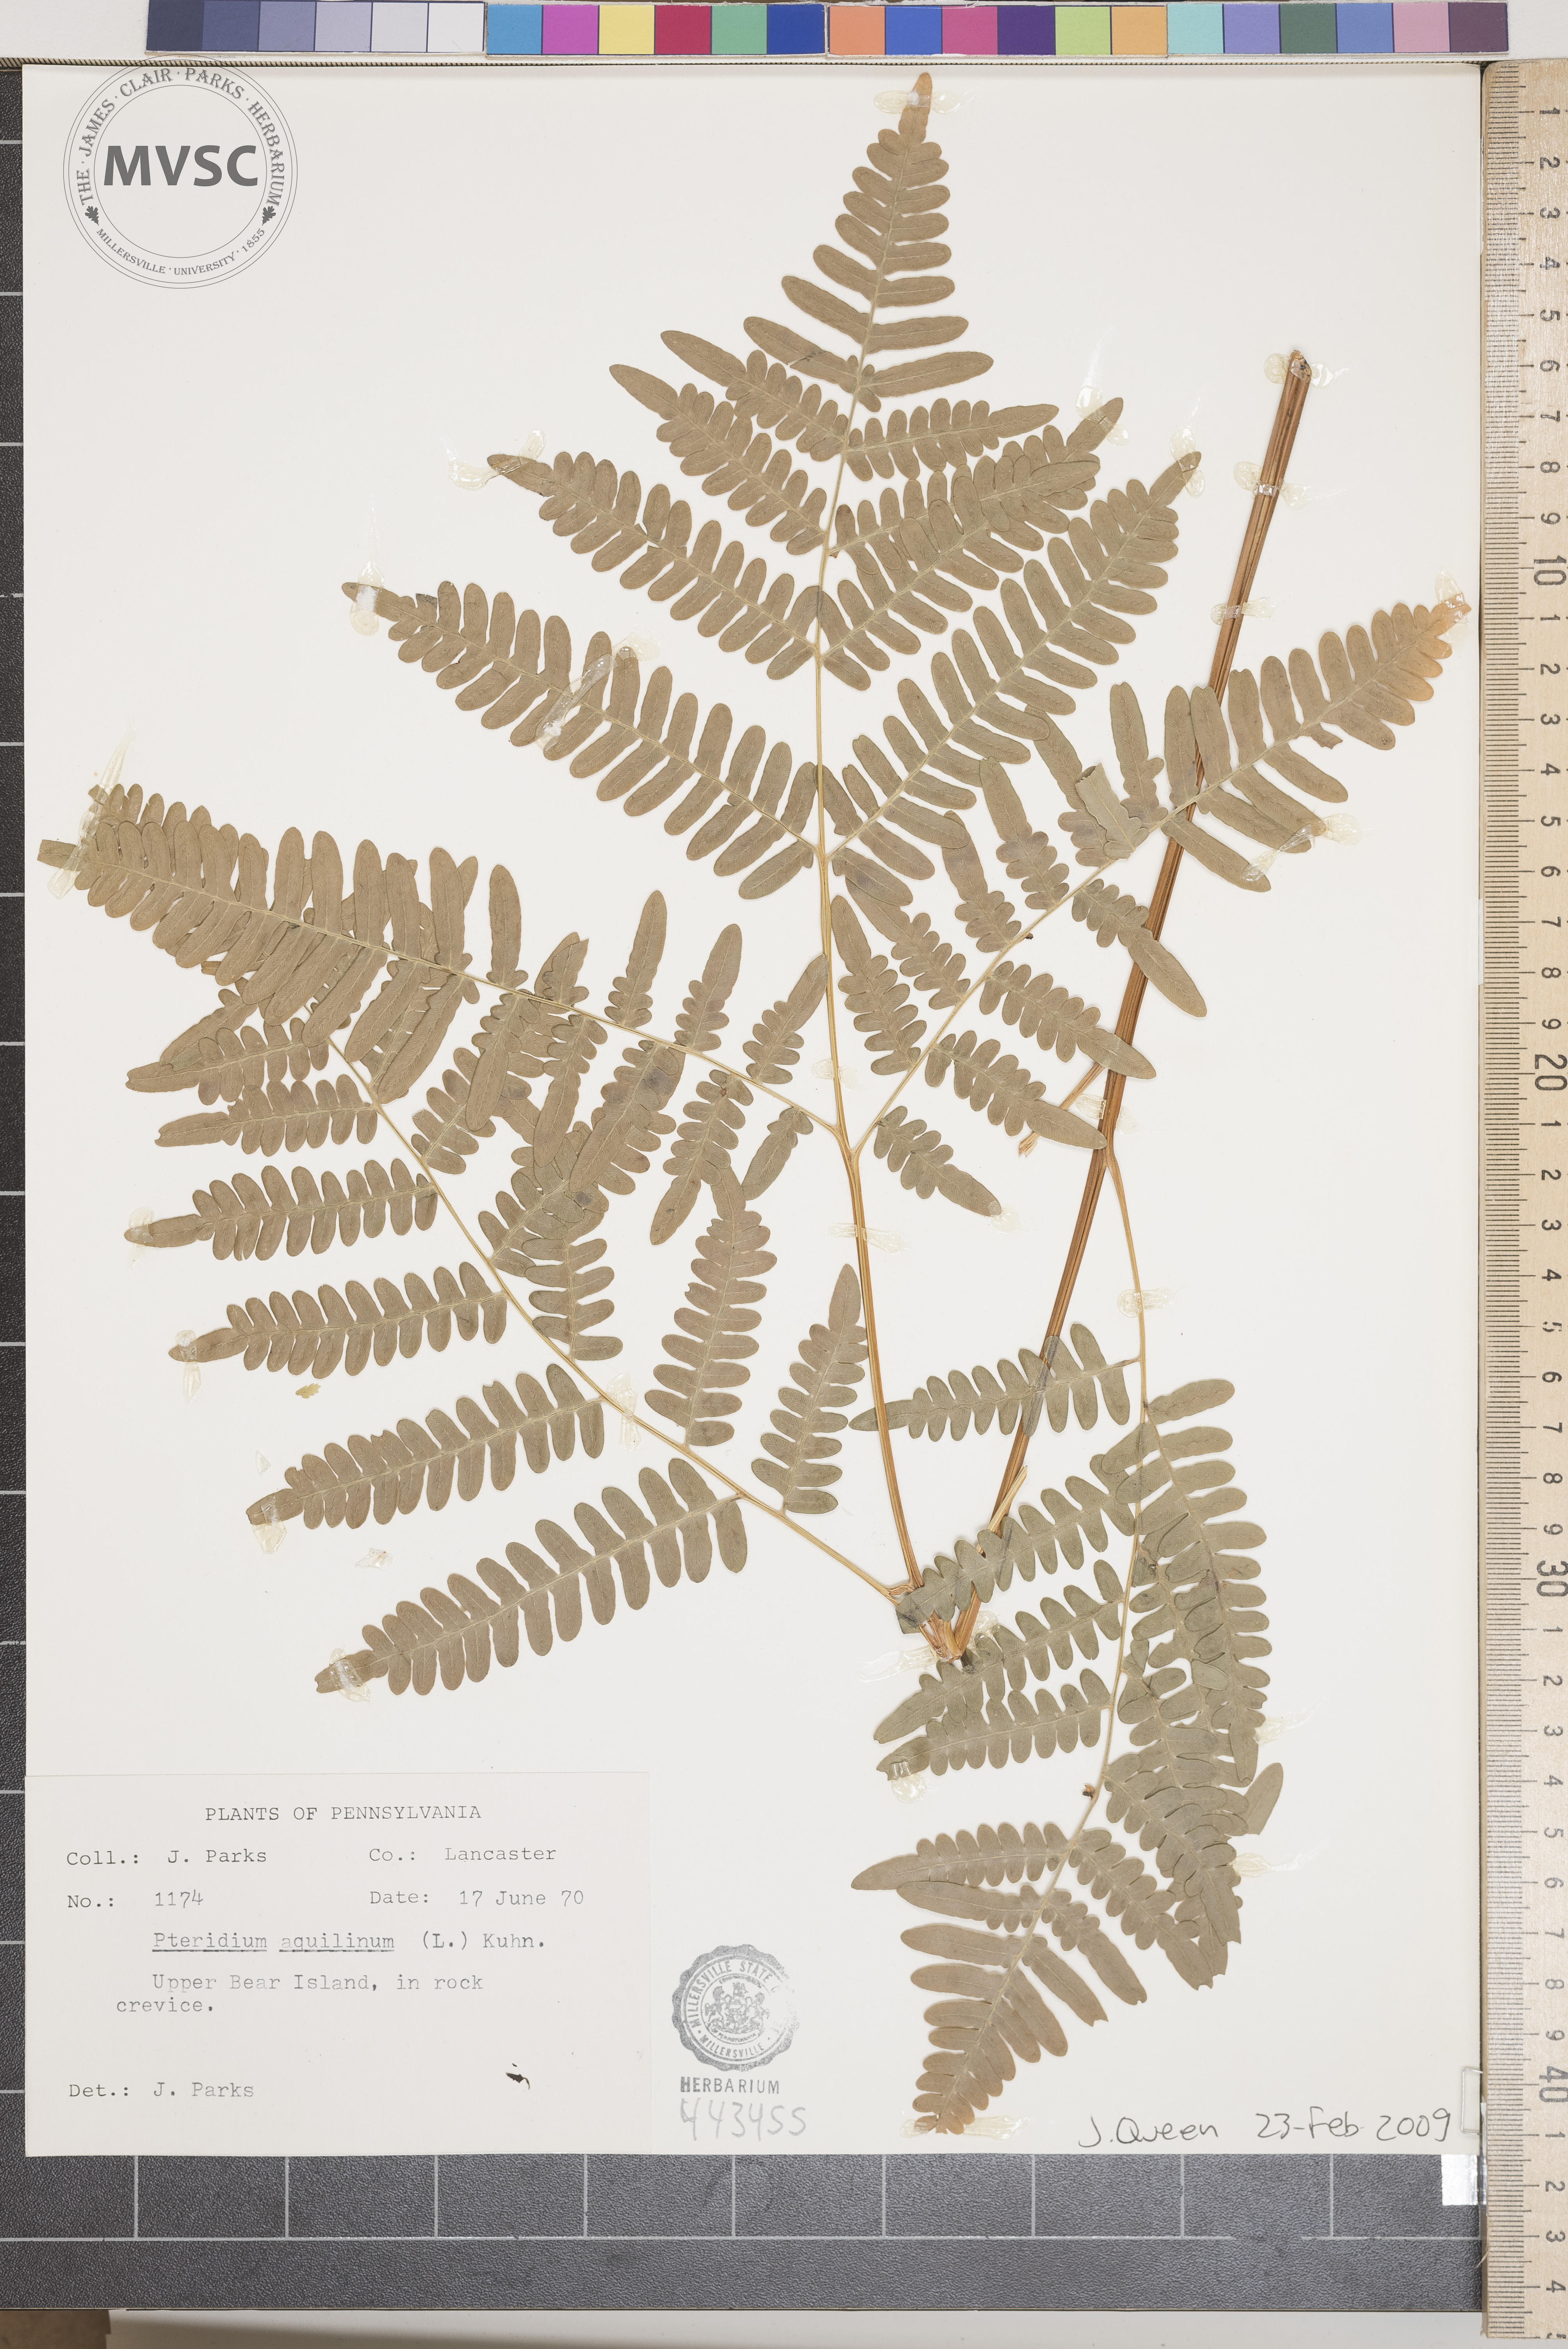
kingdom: Plantae
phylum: Tracheophyta
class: Polypodiopsida
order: Polypodiales
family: Dennstaedtiaceae
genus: Pteridium
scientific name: Pteridium aquilinum
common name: Bracken
